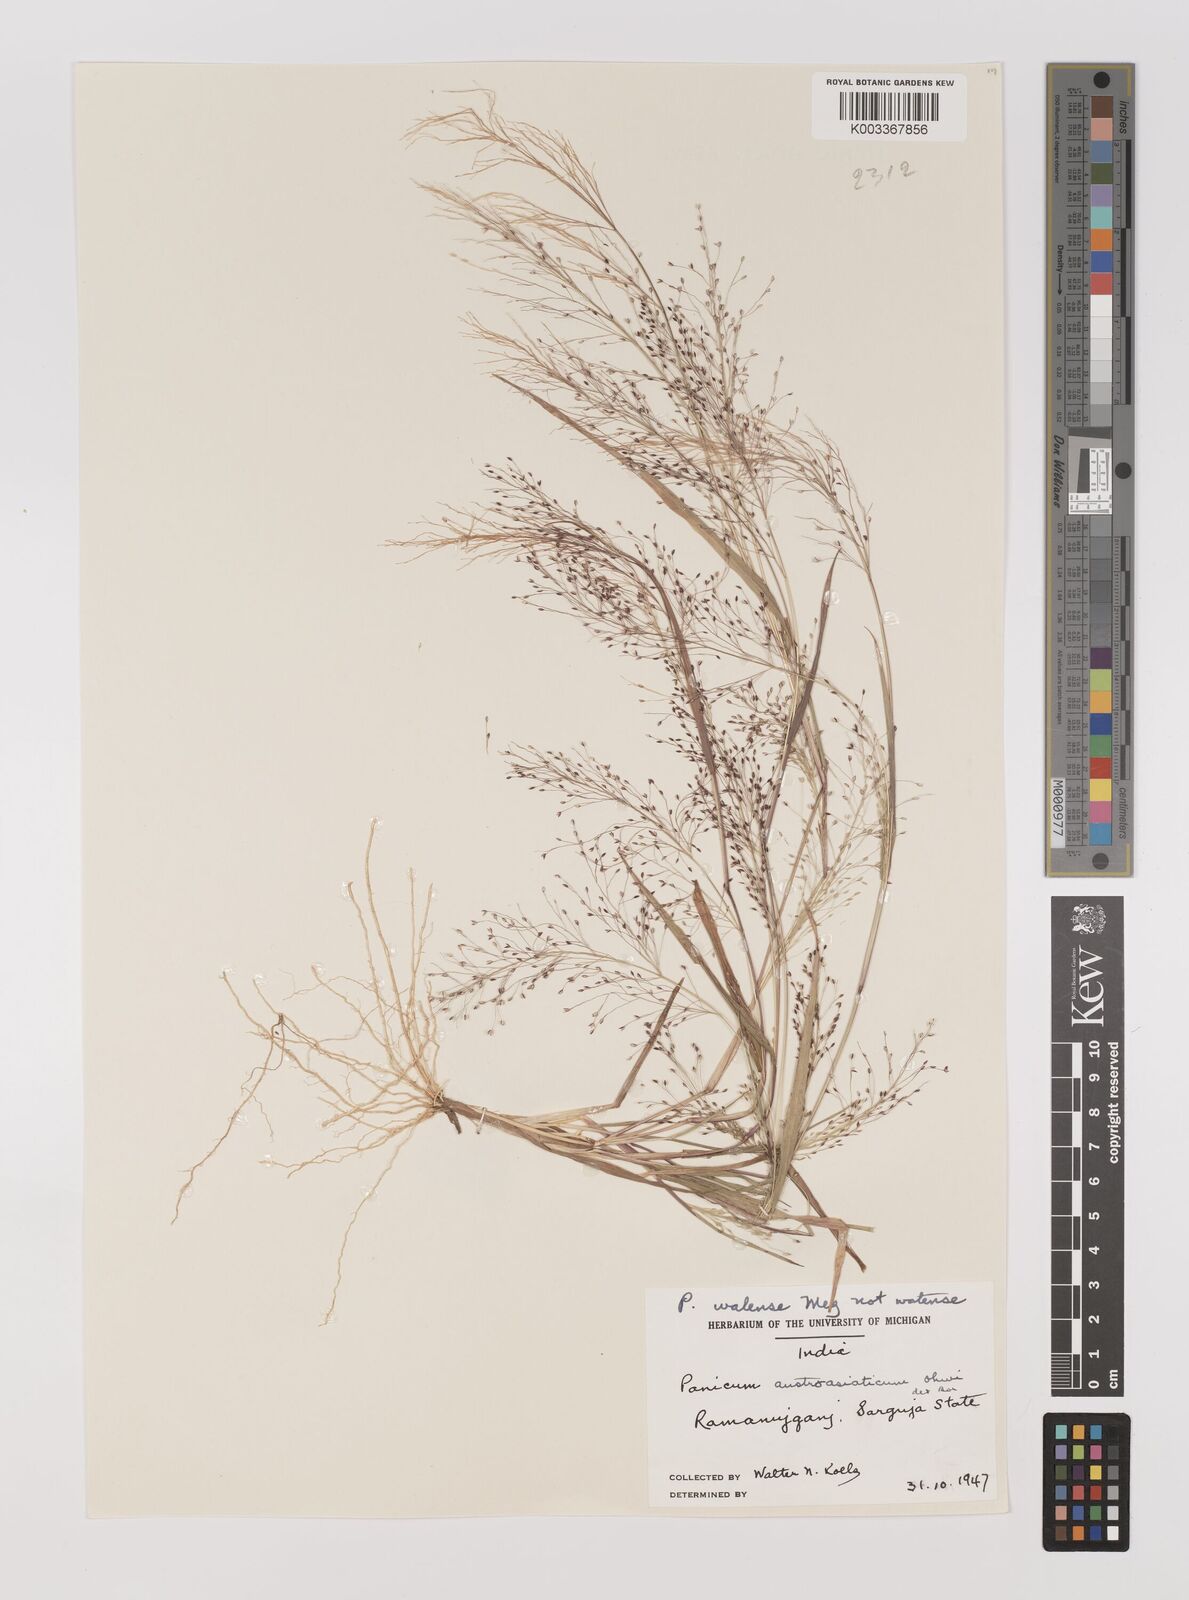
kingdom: Plantae
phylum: Tracheophyta
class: Liliopsida
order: Poales
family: Poaceae
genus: Panicum
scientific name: Panicum humile
